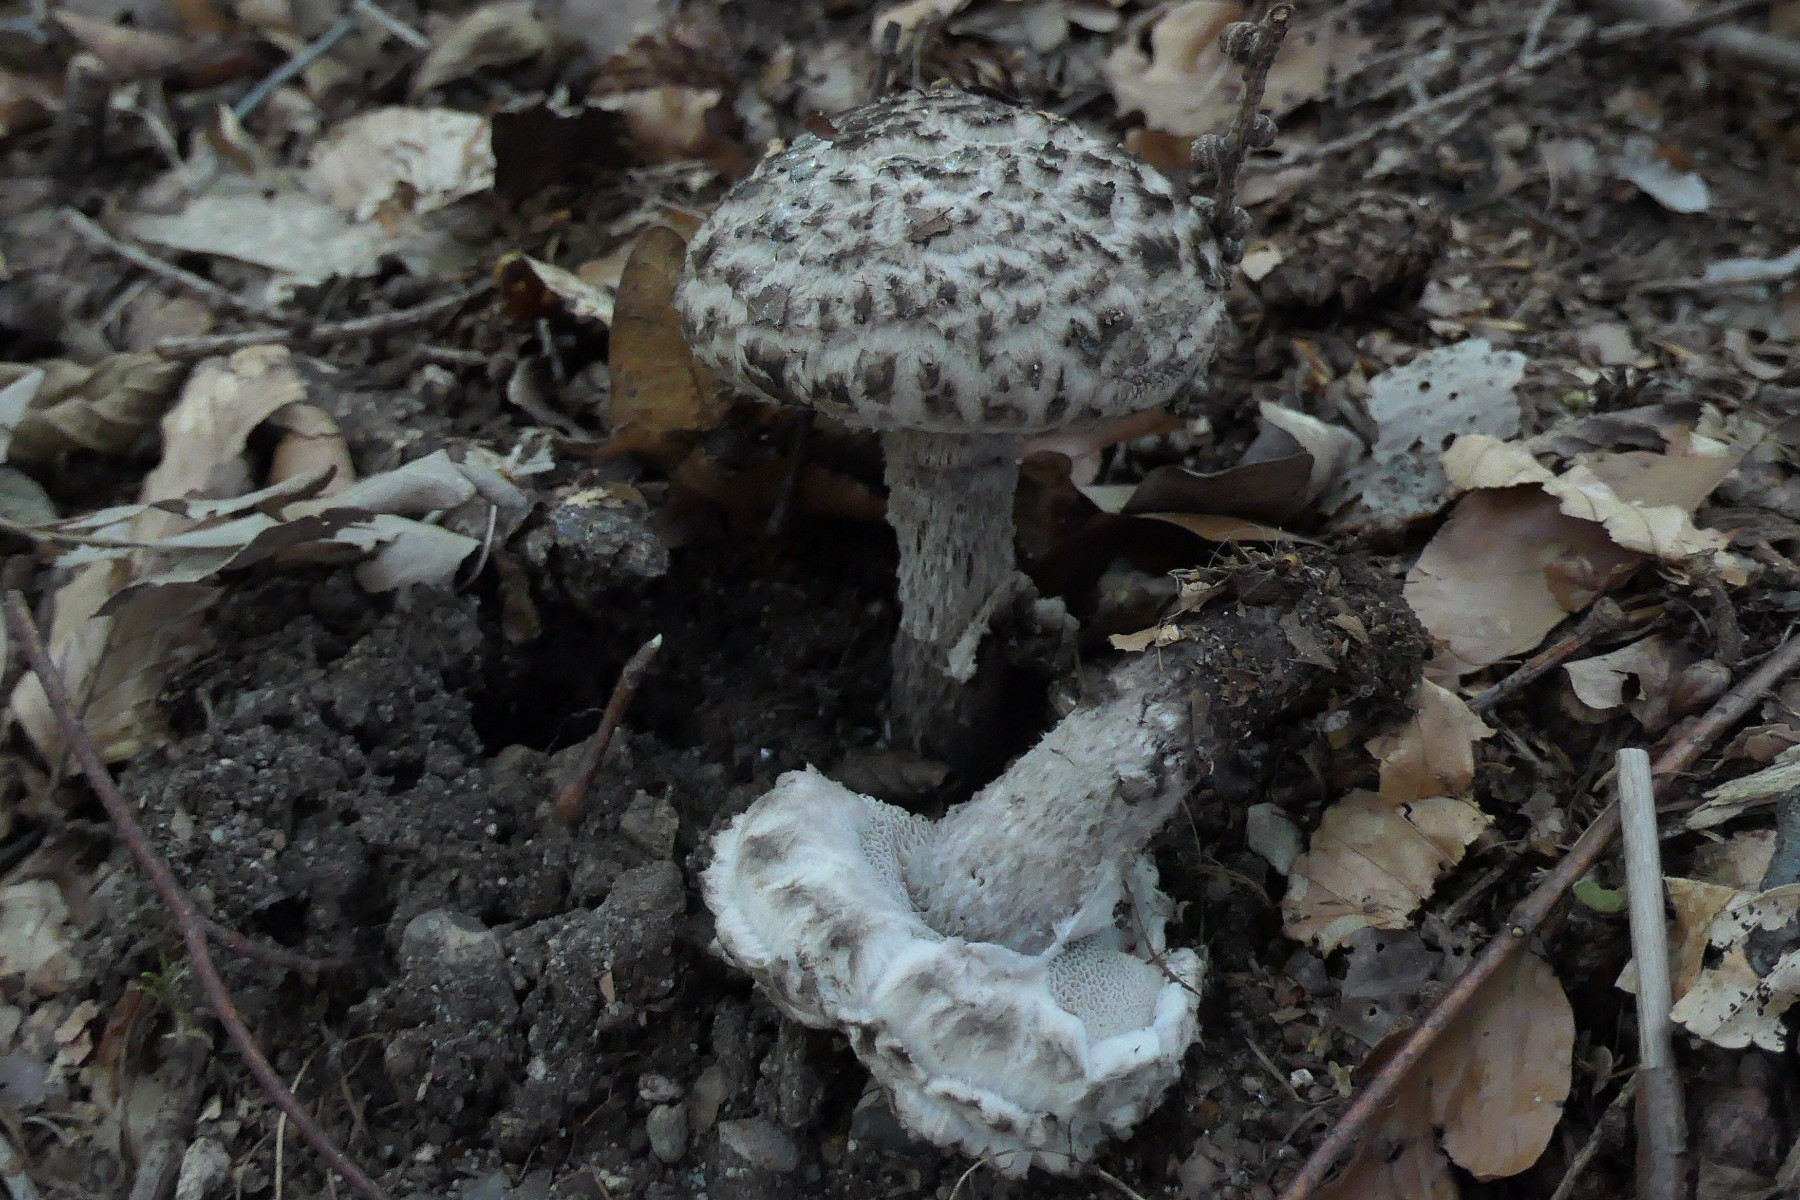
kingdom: Fungi
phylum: Basidiomycota
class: Agaricomycetes
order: Boletales
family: Boletaceae
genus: Strobilomyces
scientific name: Strobilomyces strobilaceus
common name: koglerørhat
